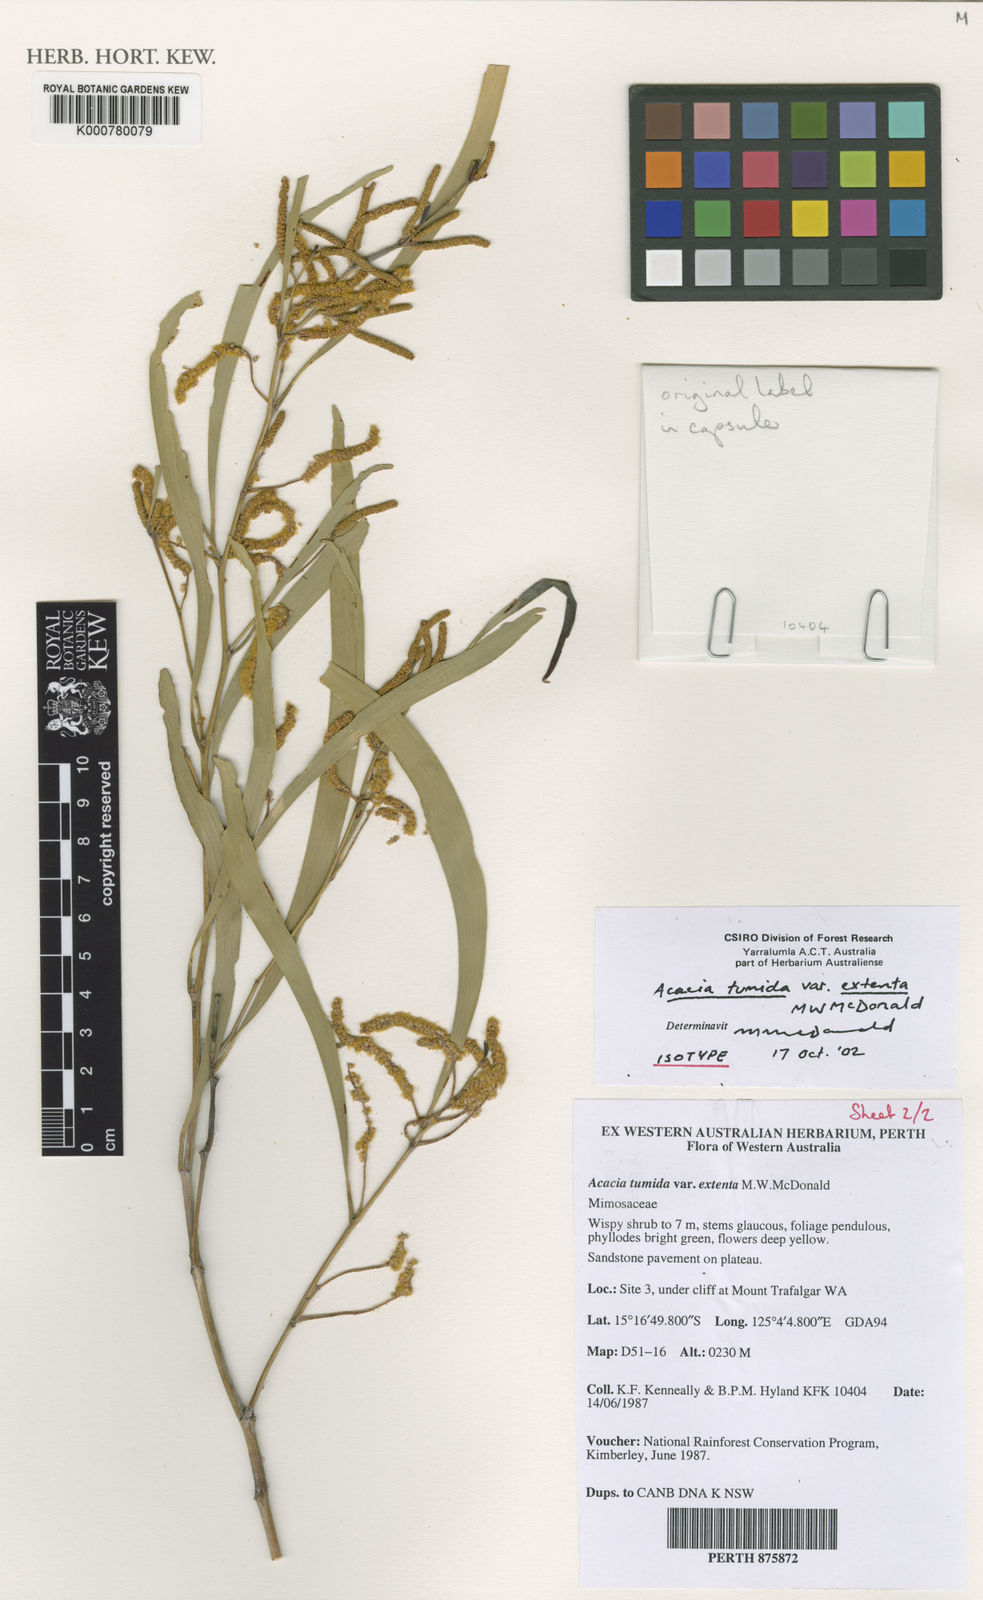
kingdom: Plantae
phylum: Tracheophyta
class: Magnoliopsida
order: Fabales
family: Fabaceae
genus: Acacia
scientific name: Acacia tumida
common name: Pindan wattle
